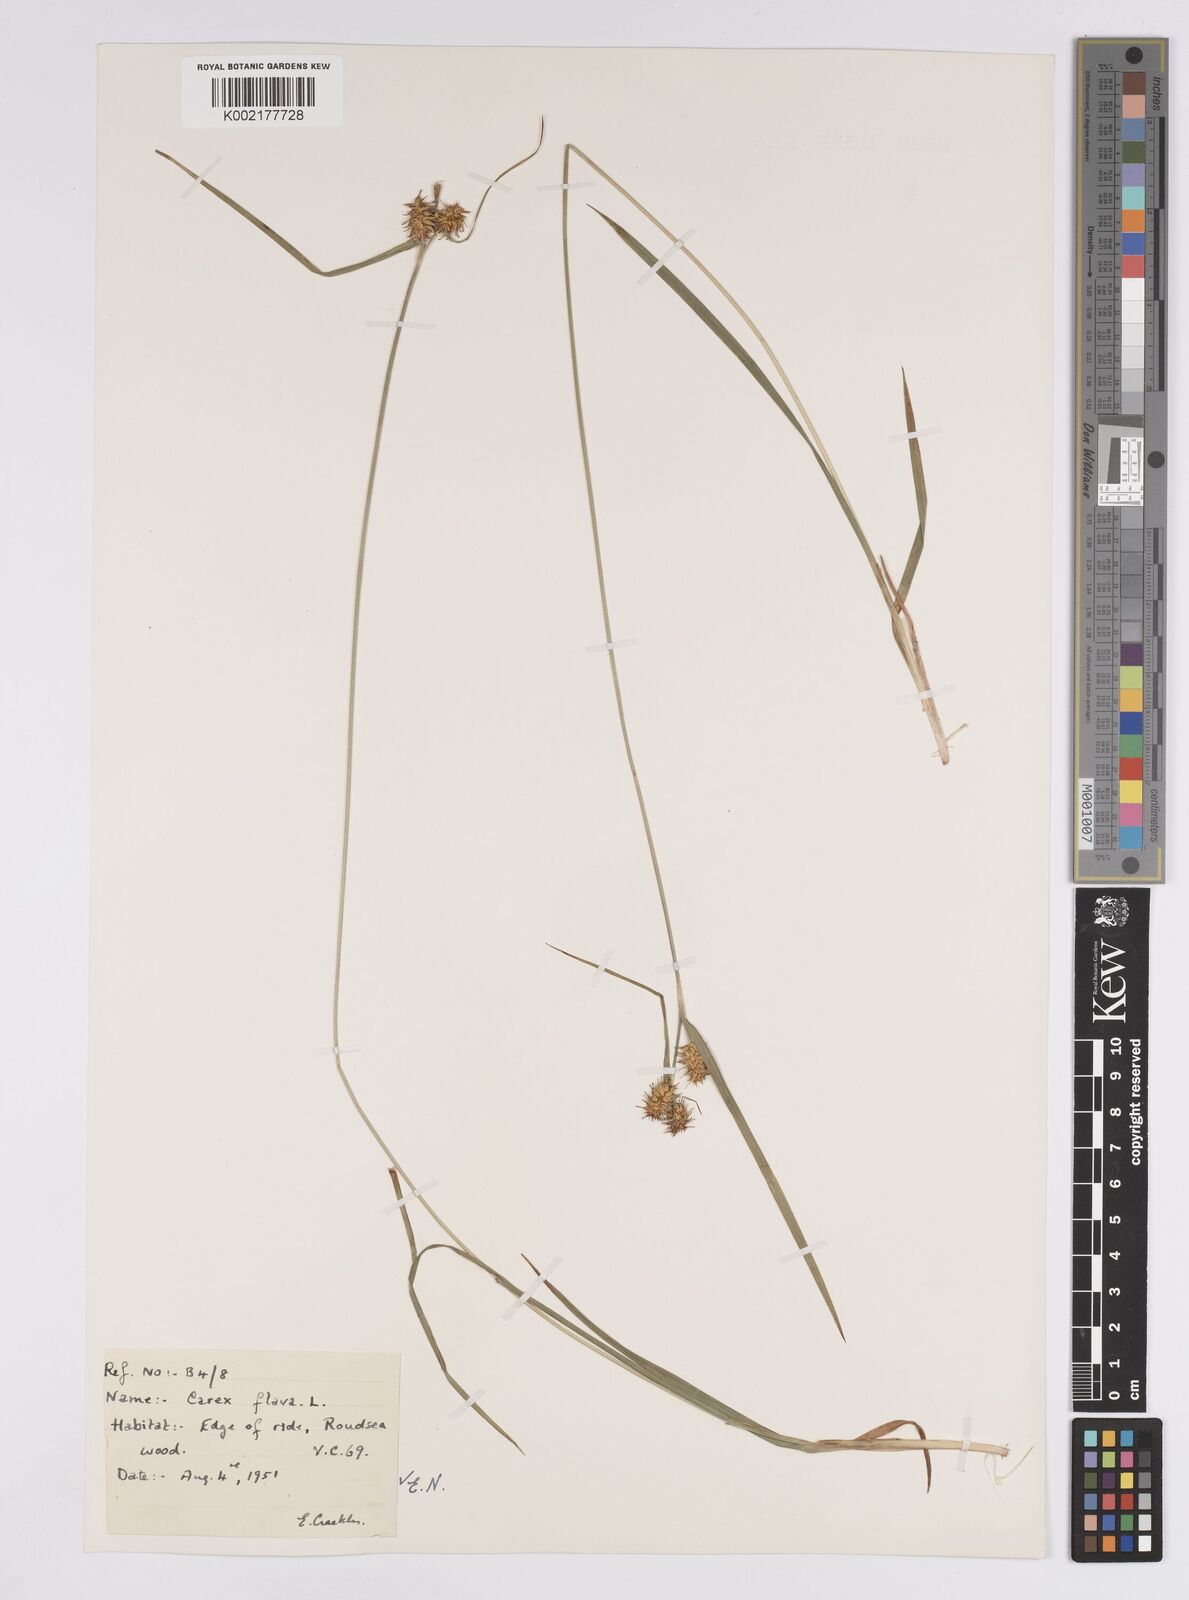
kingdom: Plantae
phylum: Tracheophyta
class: Liliopsida
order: Poales
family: Cyperaceae
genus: Carex
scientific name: Carex flava
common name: Large yellow-sedge
